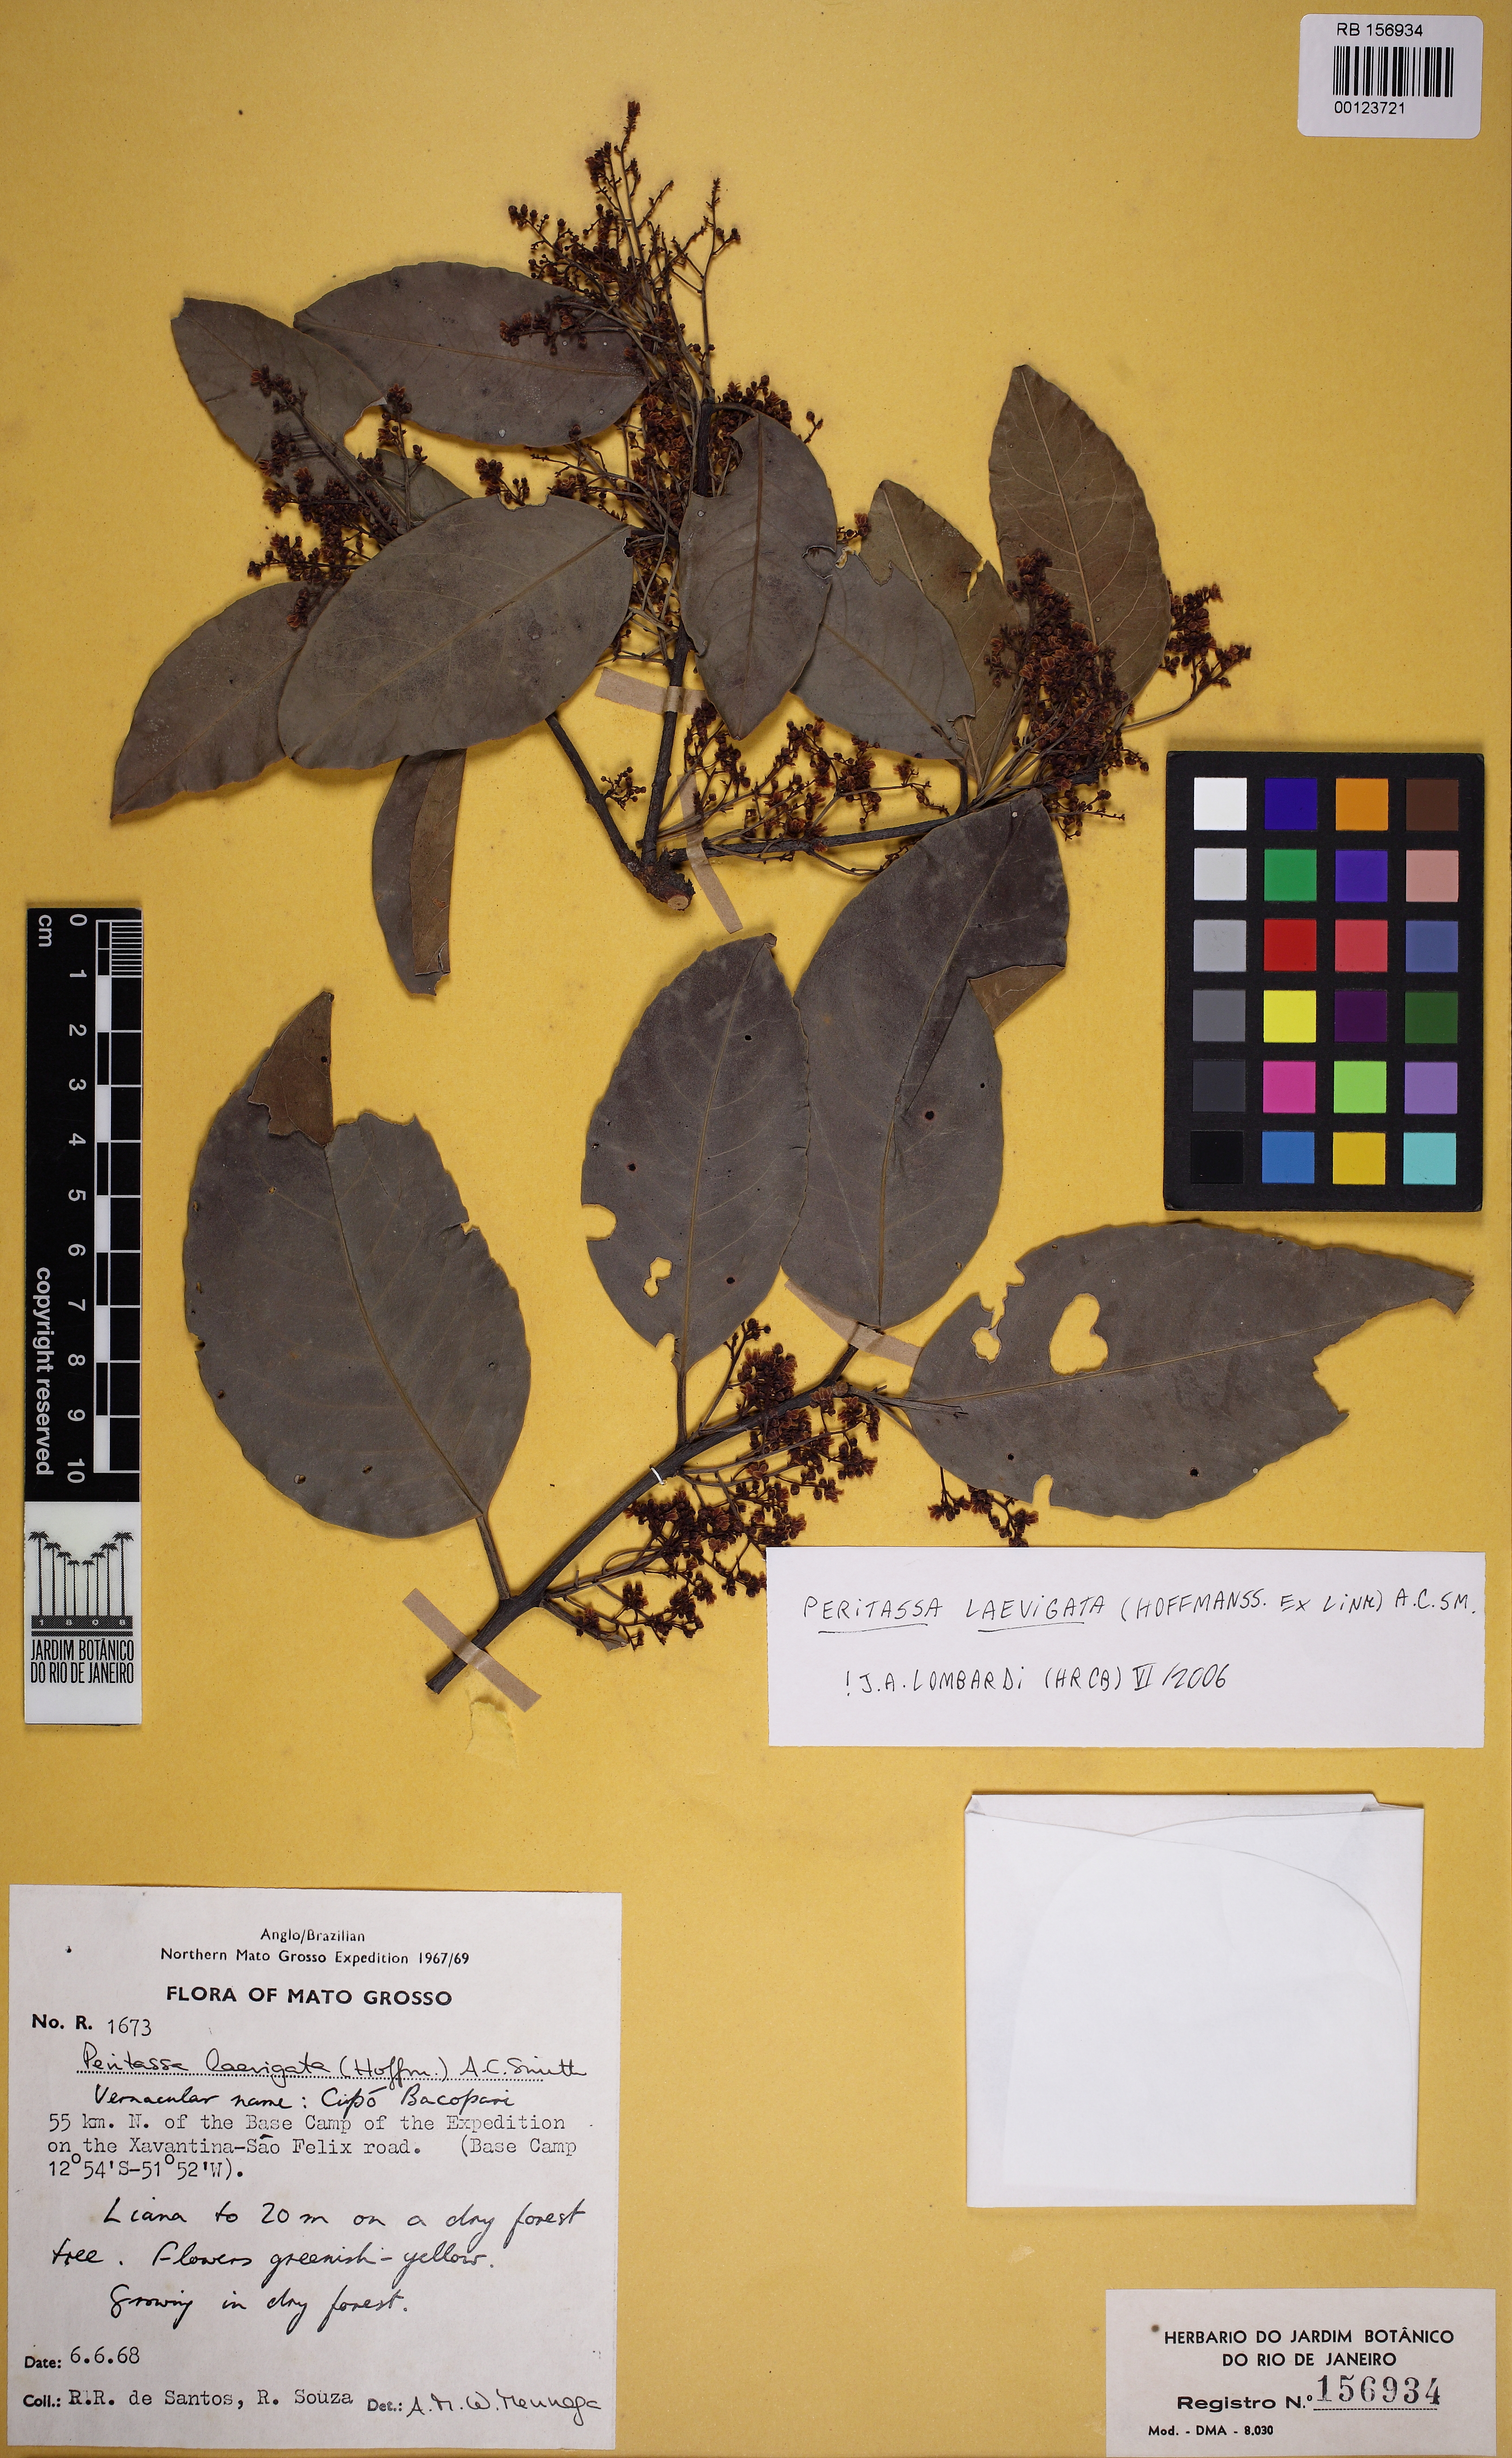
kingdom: Plantae
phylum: Tracheophyta
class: Magnoliopsida
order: Celastrales
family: Celastraceae
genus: Peritassa
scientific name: Peritassa laevigata
